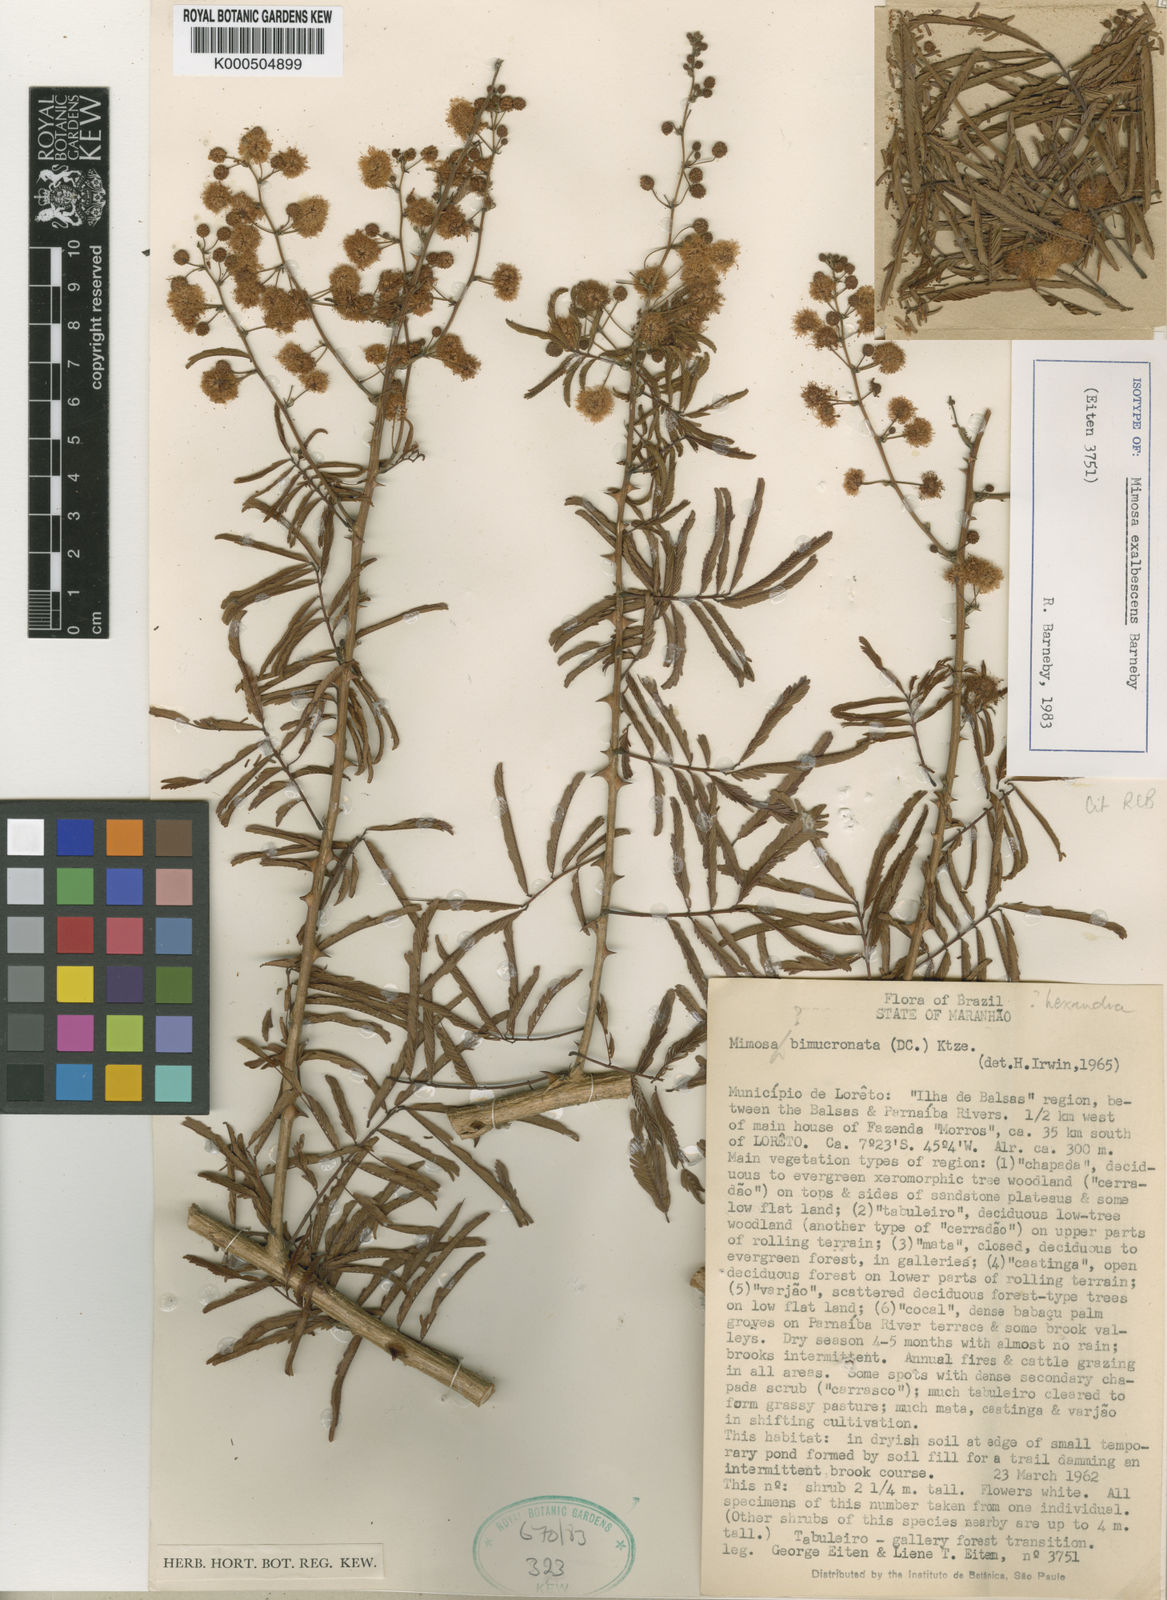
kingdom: Plantae
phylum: Tracheophyta
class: Magnoliopsida
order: Fabales
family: Fabaceae
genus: Mimosa
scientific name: Mimosa exalbescens
